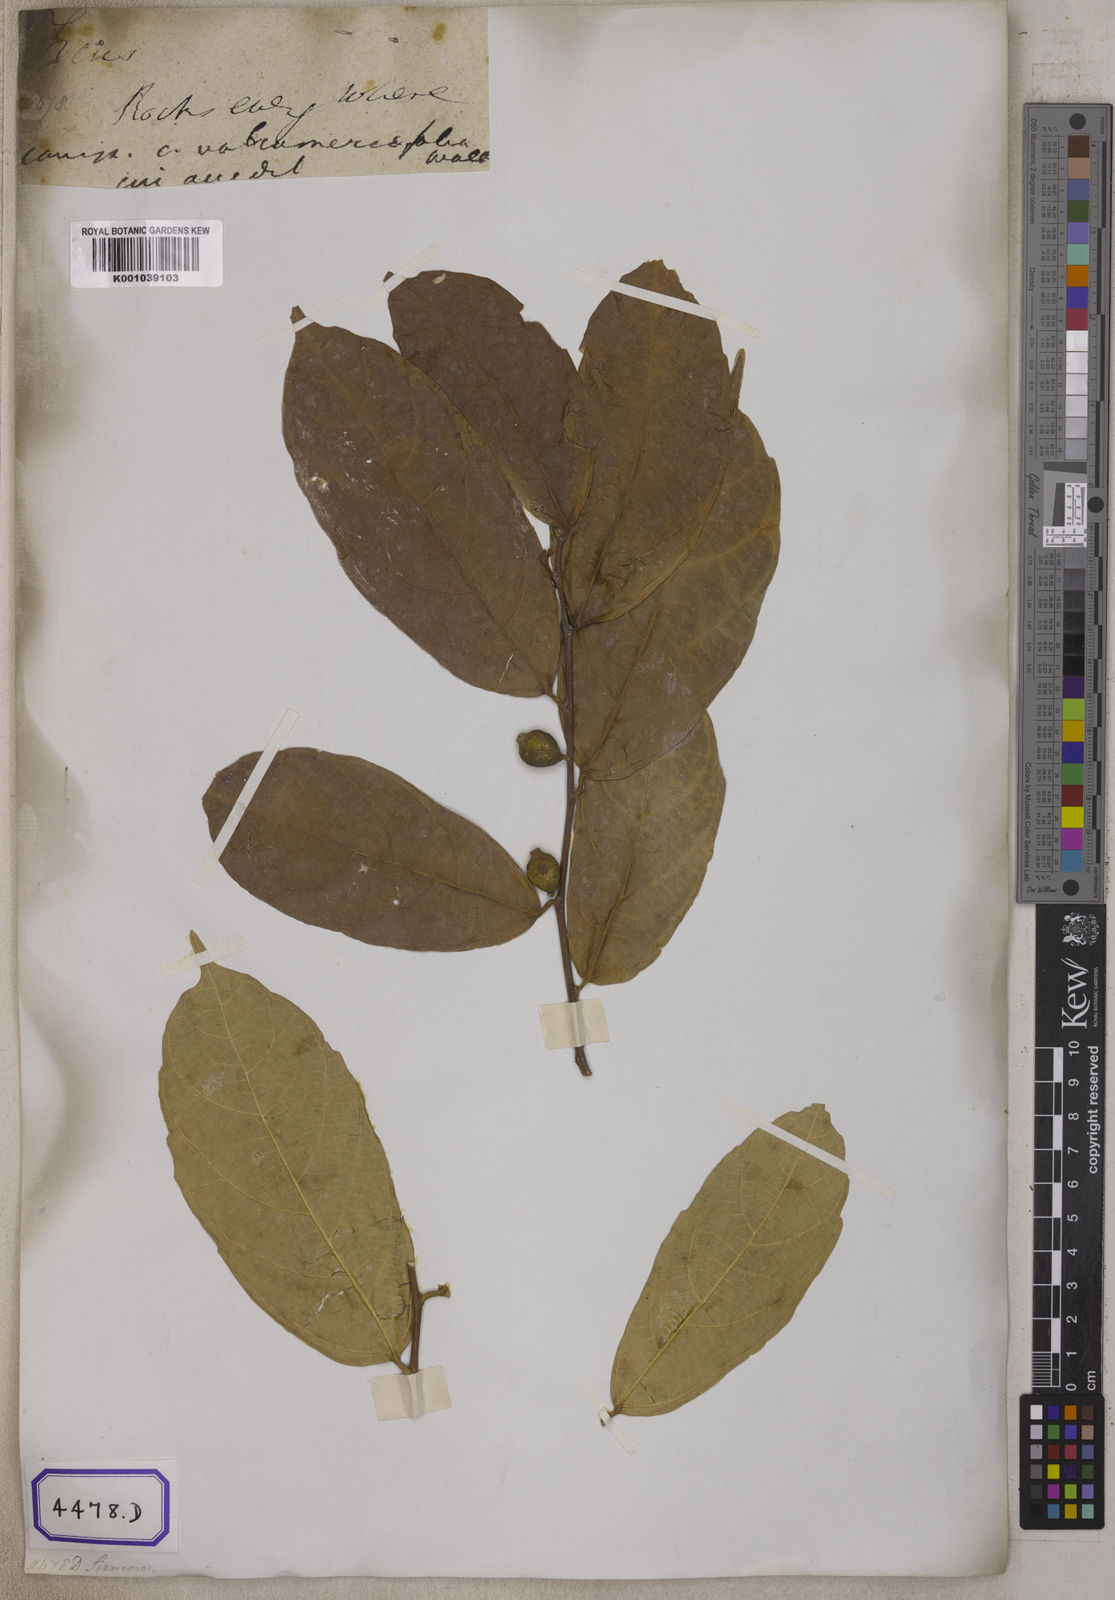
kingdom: Plantae
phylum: Tracheophyta
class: Magnoliopsida
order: Rosales
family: Moraceae
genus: Ficus
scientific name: Ficus
